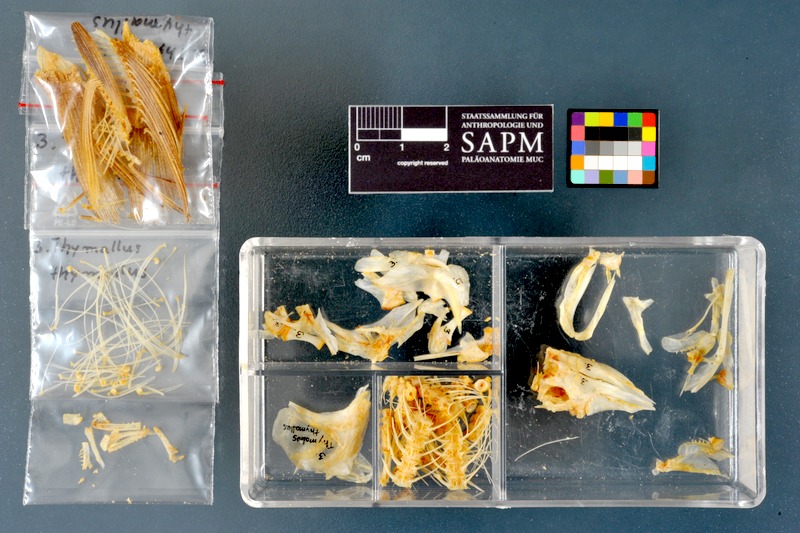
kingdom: Animalia
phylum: Chordata
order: Salmoniformes
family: Salmonidae
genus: Thymallus
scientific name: Thymallus thymallus
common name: Grayling
